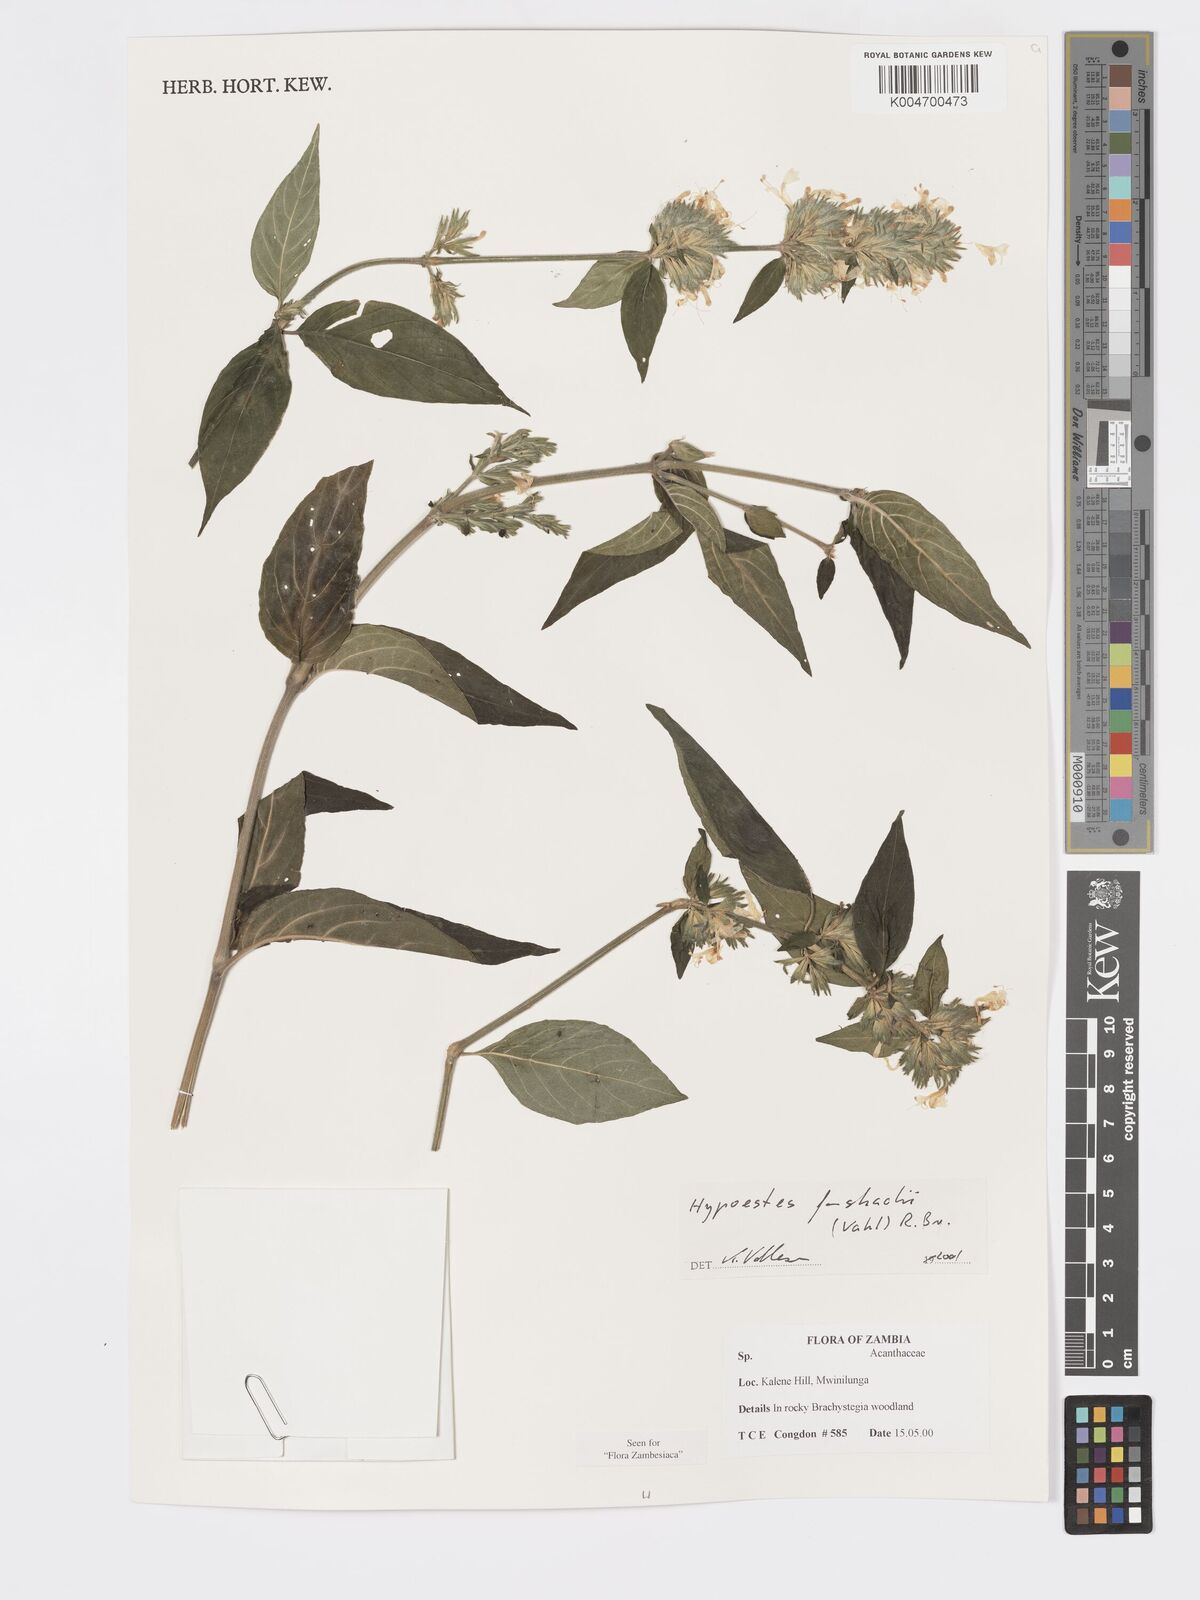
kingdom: Plantae
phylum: Tracheophyta
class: Magnoliopsida
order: Lamiales
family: Acanthaceae
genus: Hypoestes
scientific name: Hypoestes forskaolii
